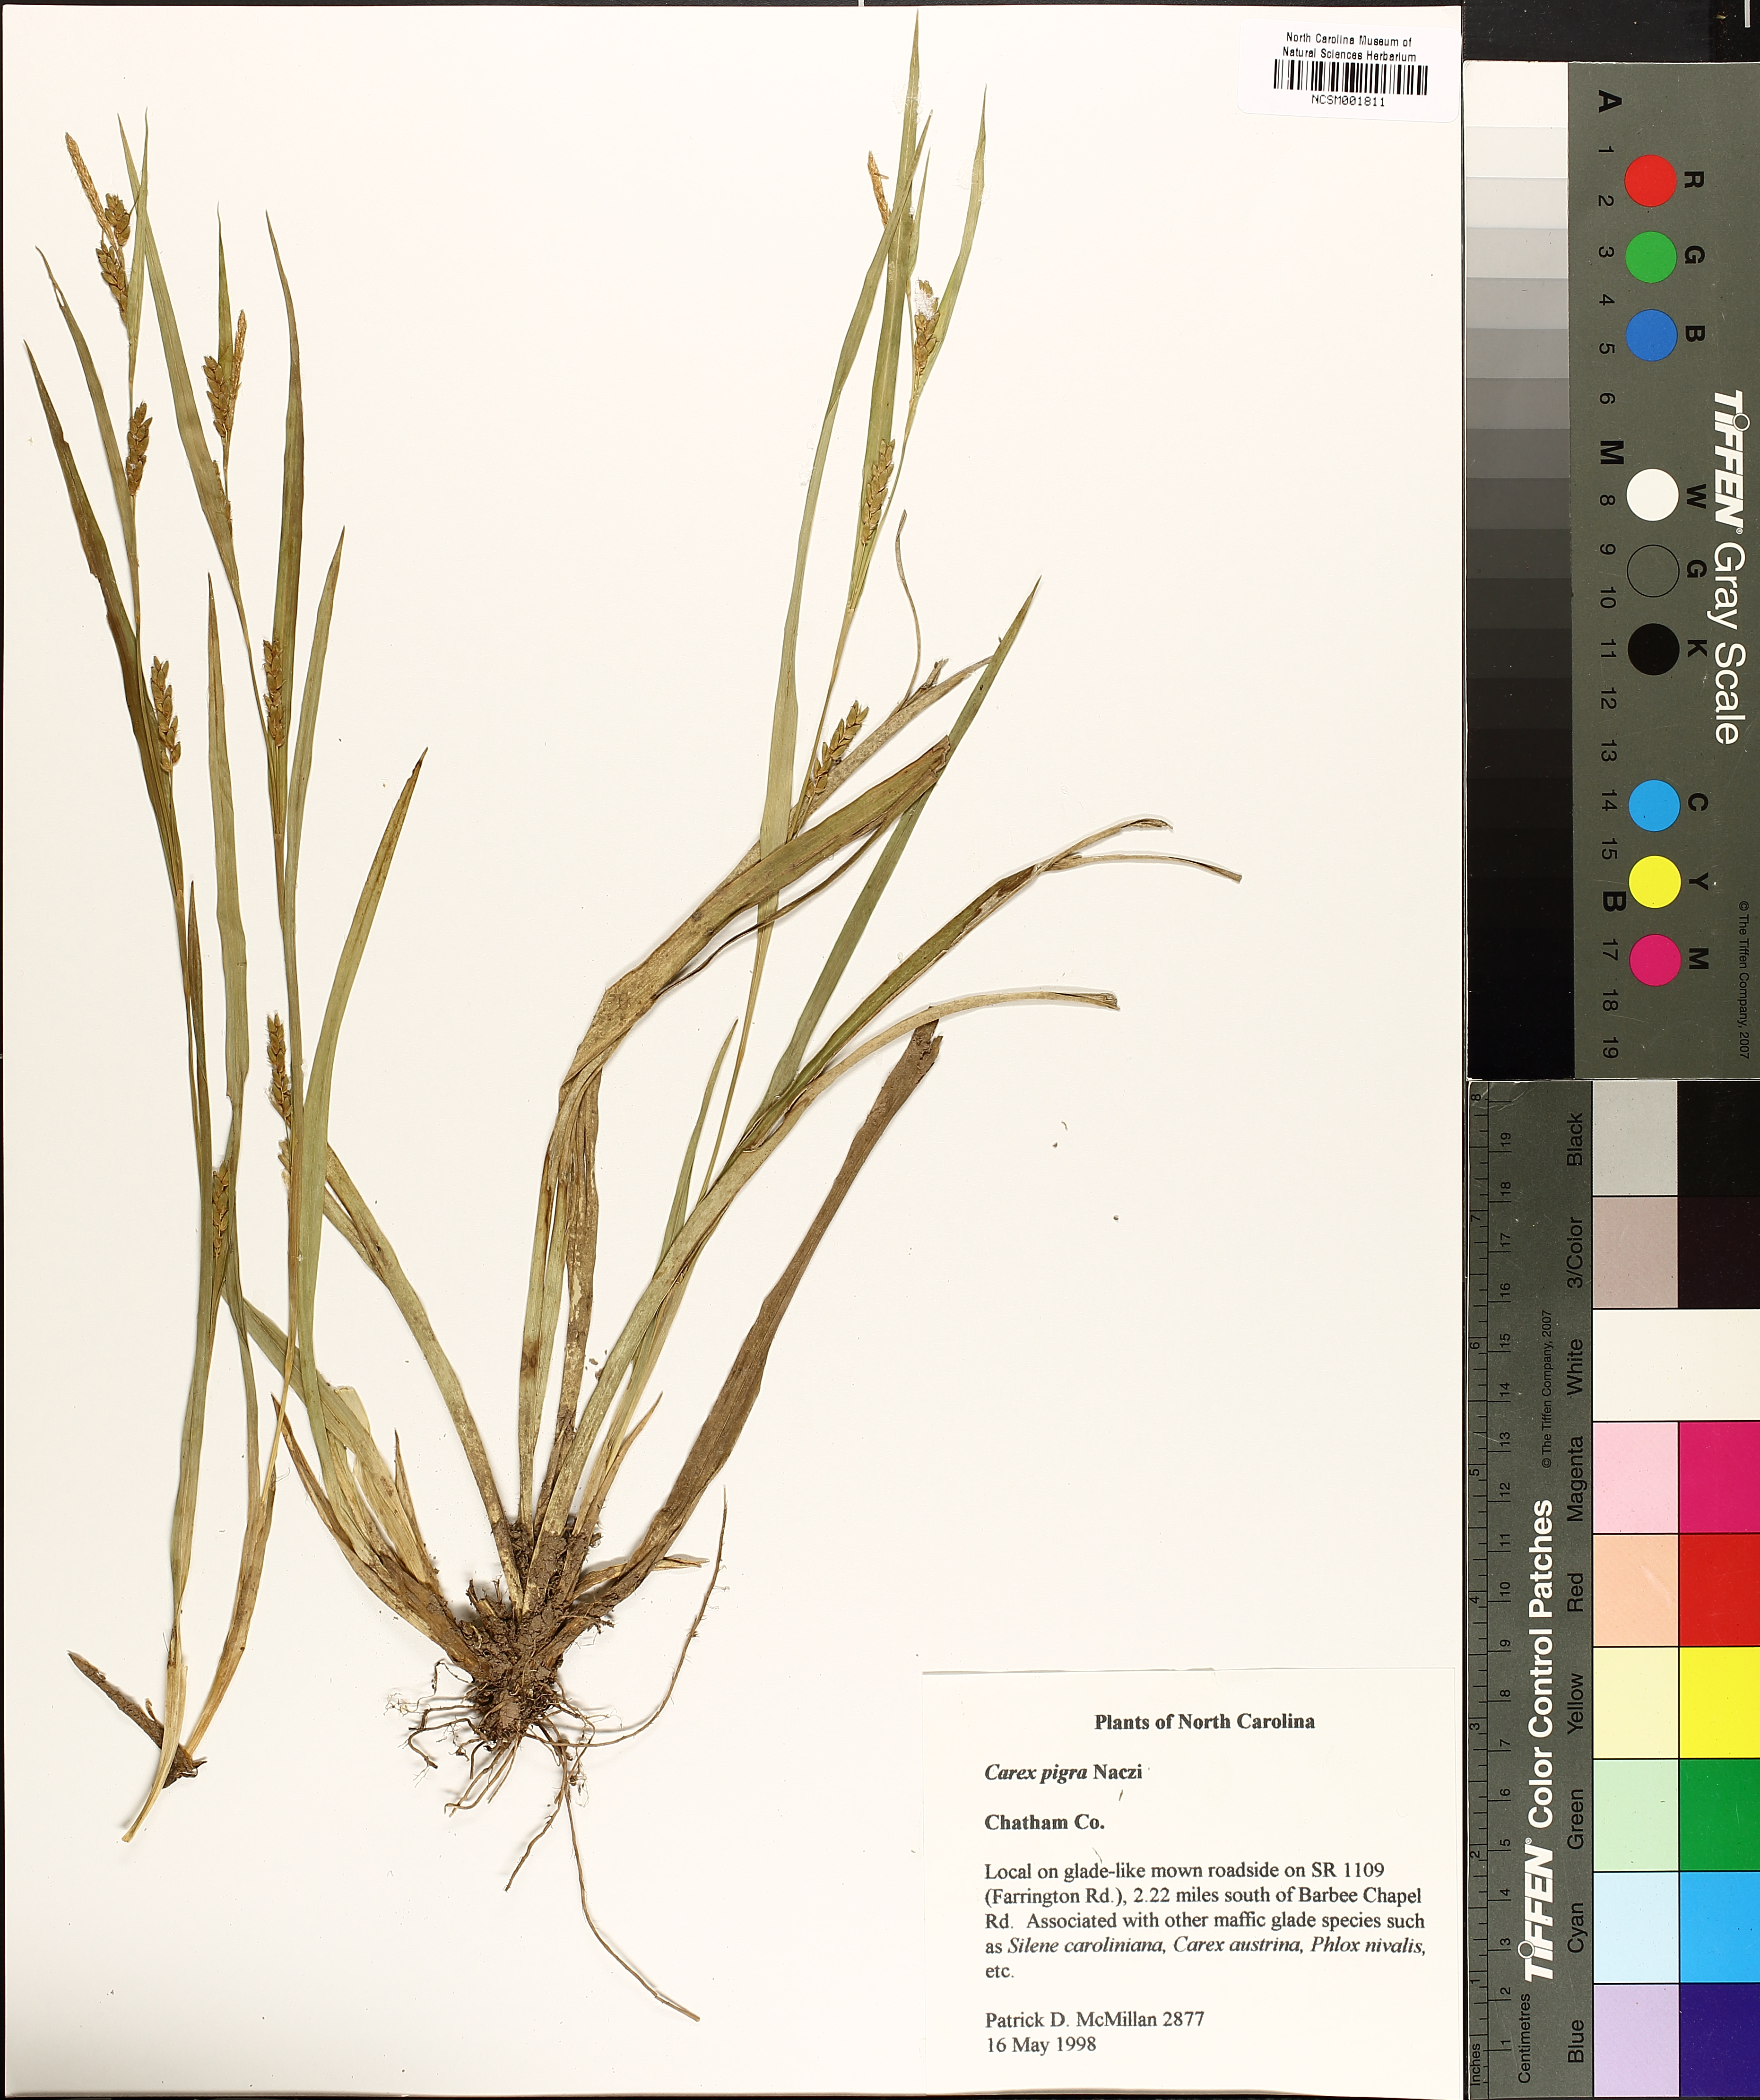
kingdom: Plantae
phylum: Tracheophyta
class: Liliopsida
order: Poales
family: Cyperaceae
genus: Carex
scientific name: Carex pigra
